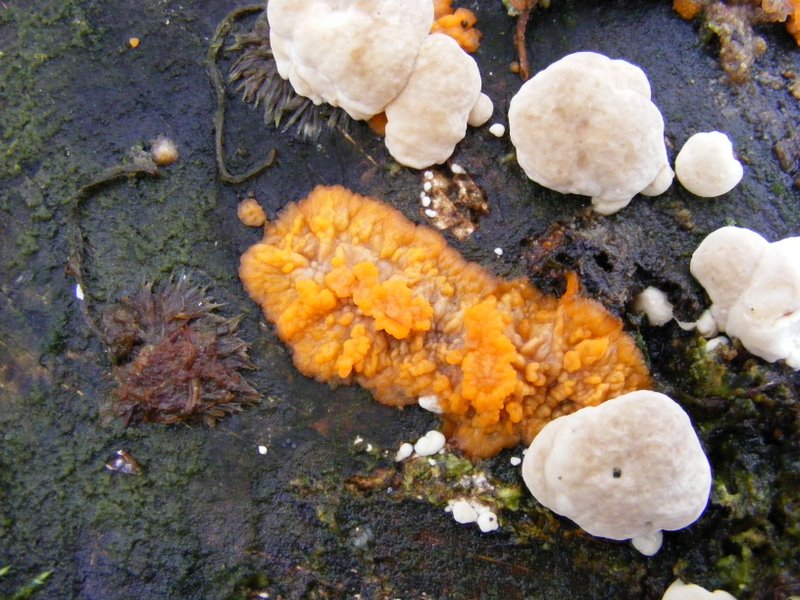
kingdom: Fungi
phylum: Basidiomycota
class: Agaricomycetes
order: Polyporales
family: Meruliaceae
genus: Phlebia
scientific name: Phlebia radiata
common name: stråle-åresvamp
